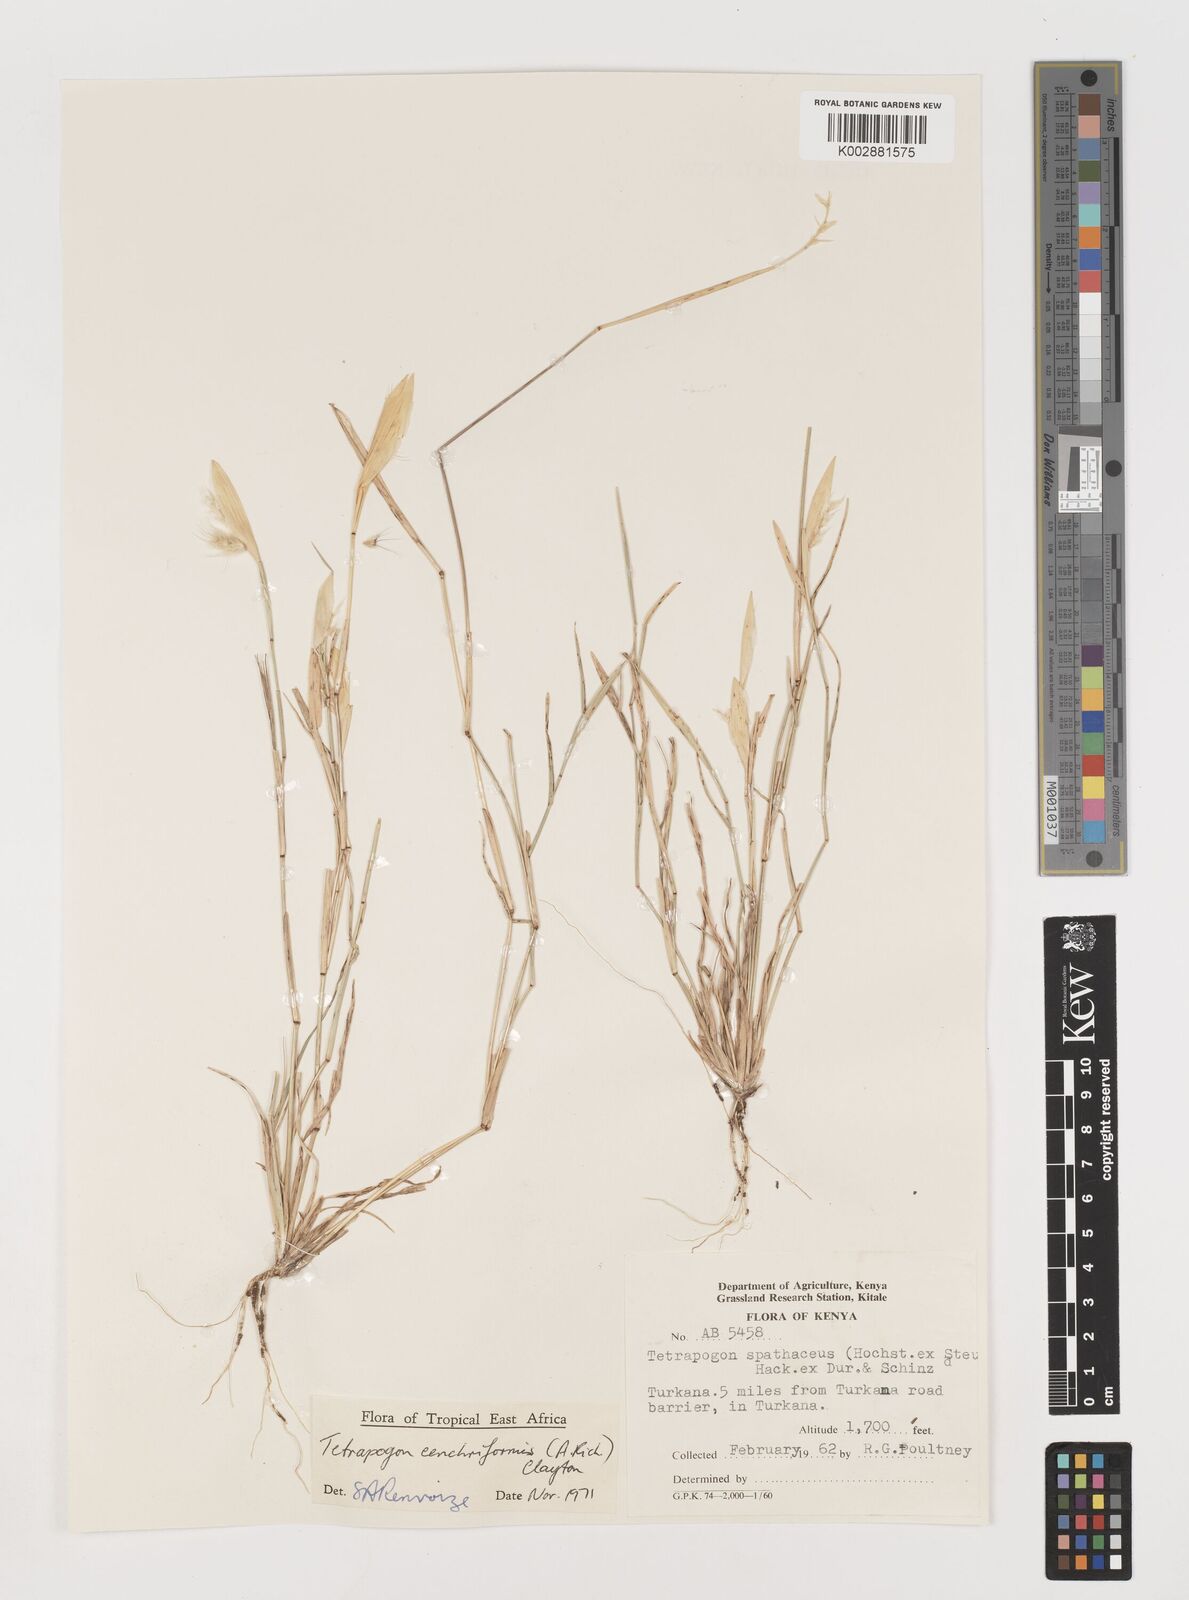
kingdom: Plantae
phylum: Tracheophyta
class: Liliopsida
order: Poales
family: Poaceae
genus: Tetrapogon
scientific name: Tetrapogon cenchriformis
